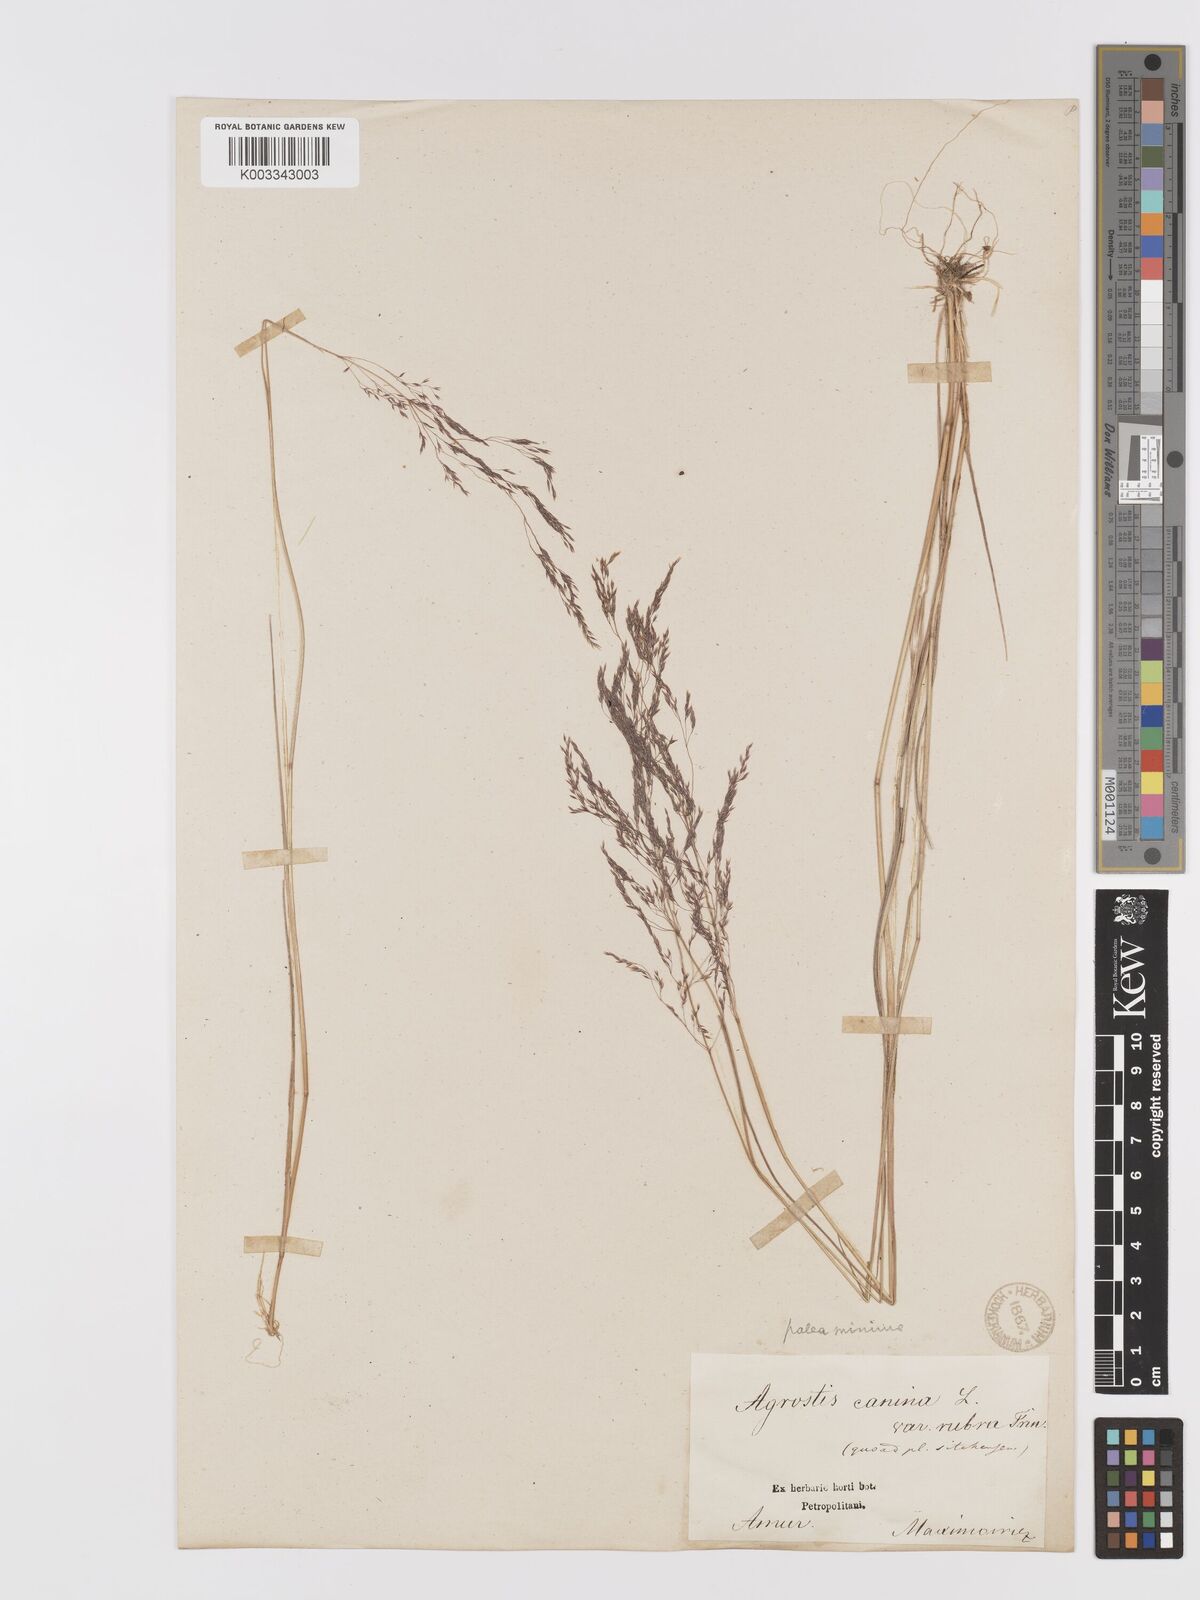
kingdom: Plantae
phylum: Tracheophyta
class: Liliopsida
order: Poales
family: Poaceae
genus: Agrostis
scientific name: Agrostis canina
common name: Velvet bent
